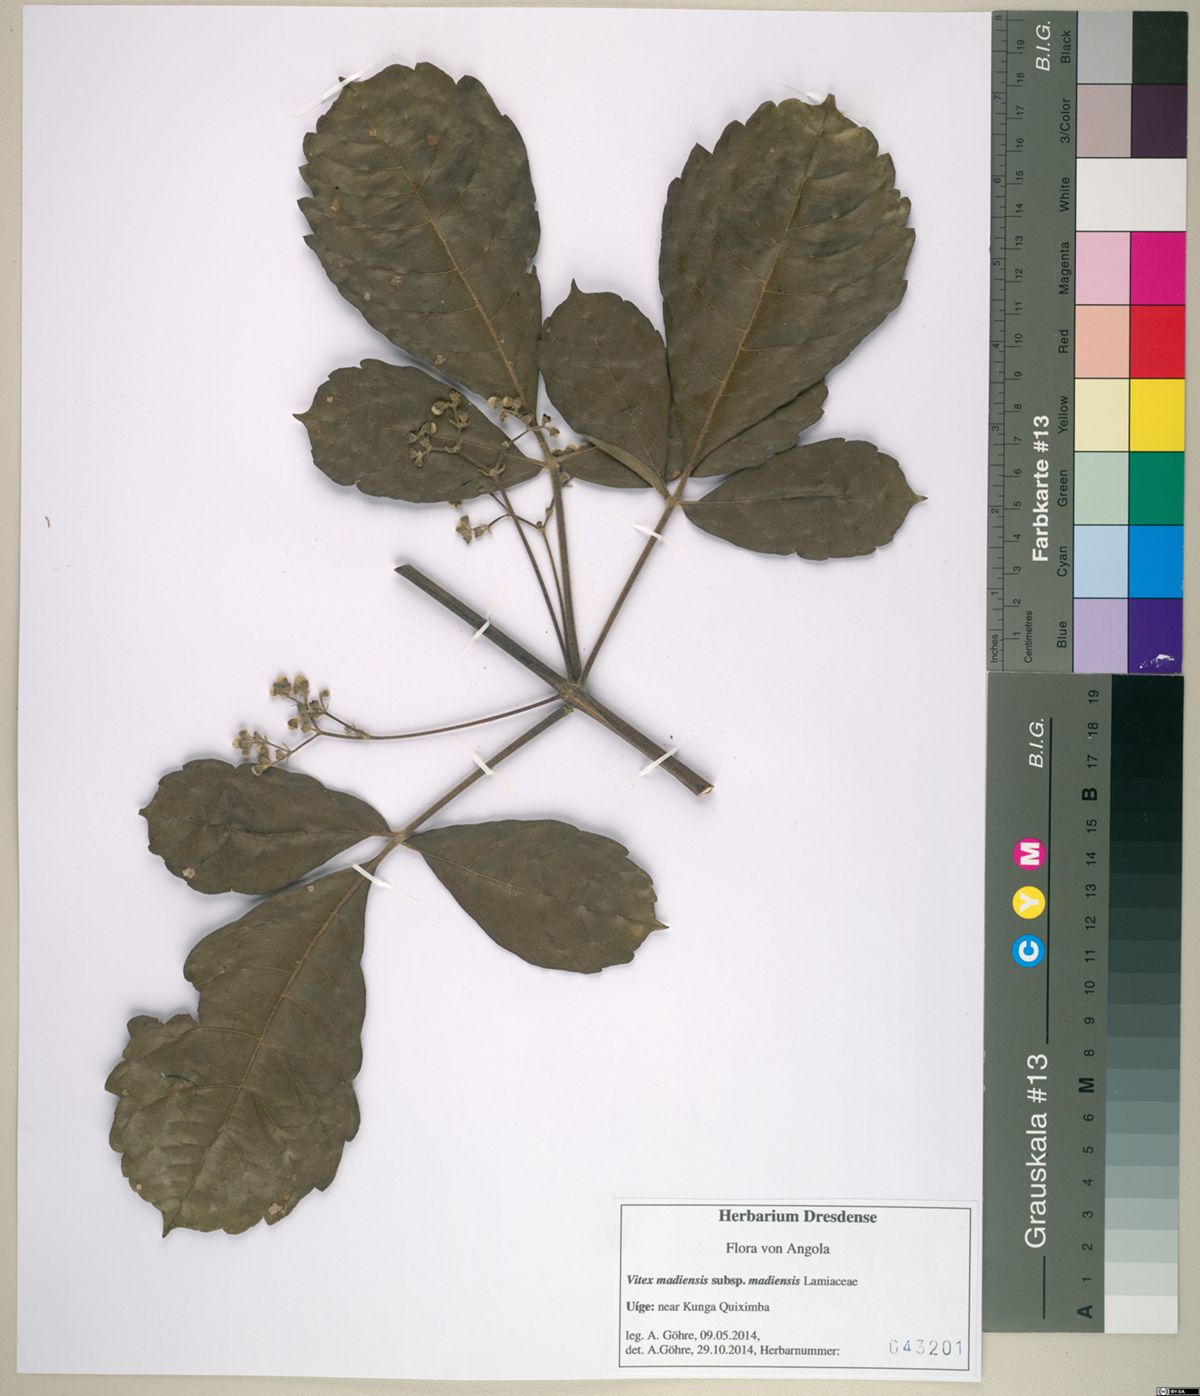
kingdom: Plantae
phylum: Tracheophyta
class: Magnoliopsida
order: Lamiales
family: Lamiaceae
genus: Vitex
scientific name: Vitex madiensis
